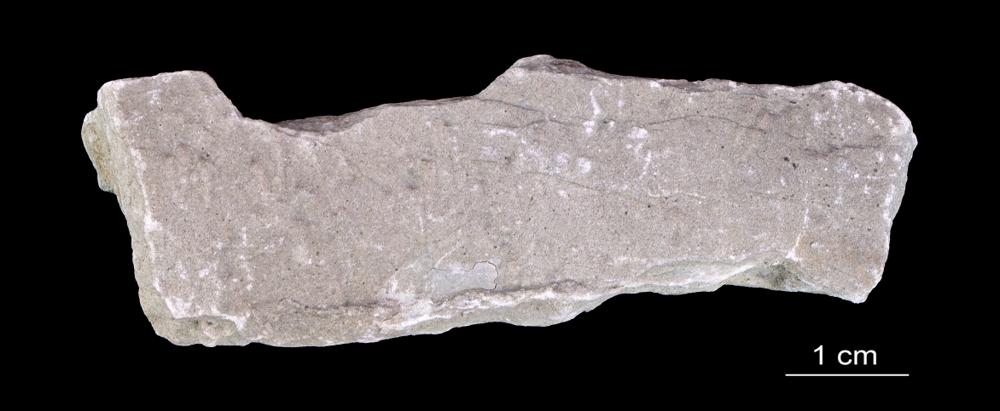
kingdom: Animalia
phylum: Annelida
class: Polychaeta
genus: Volborthella
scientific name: Volborthella tenuis
